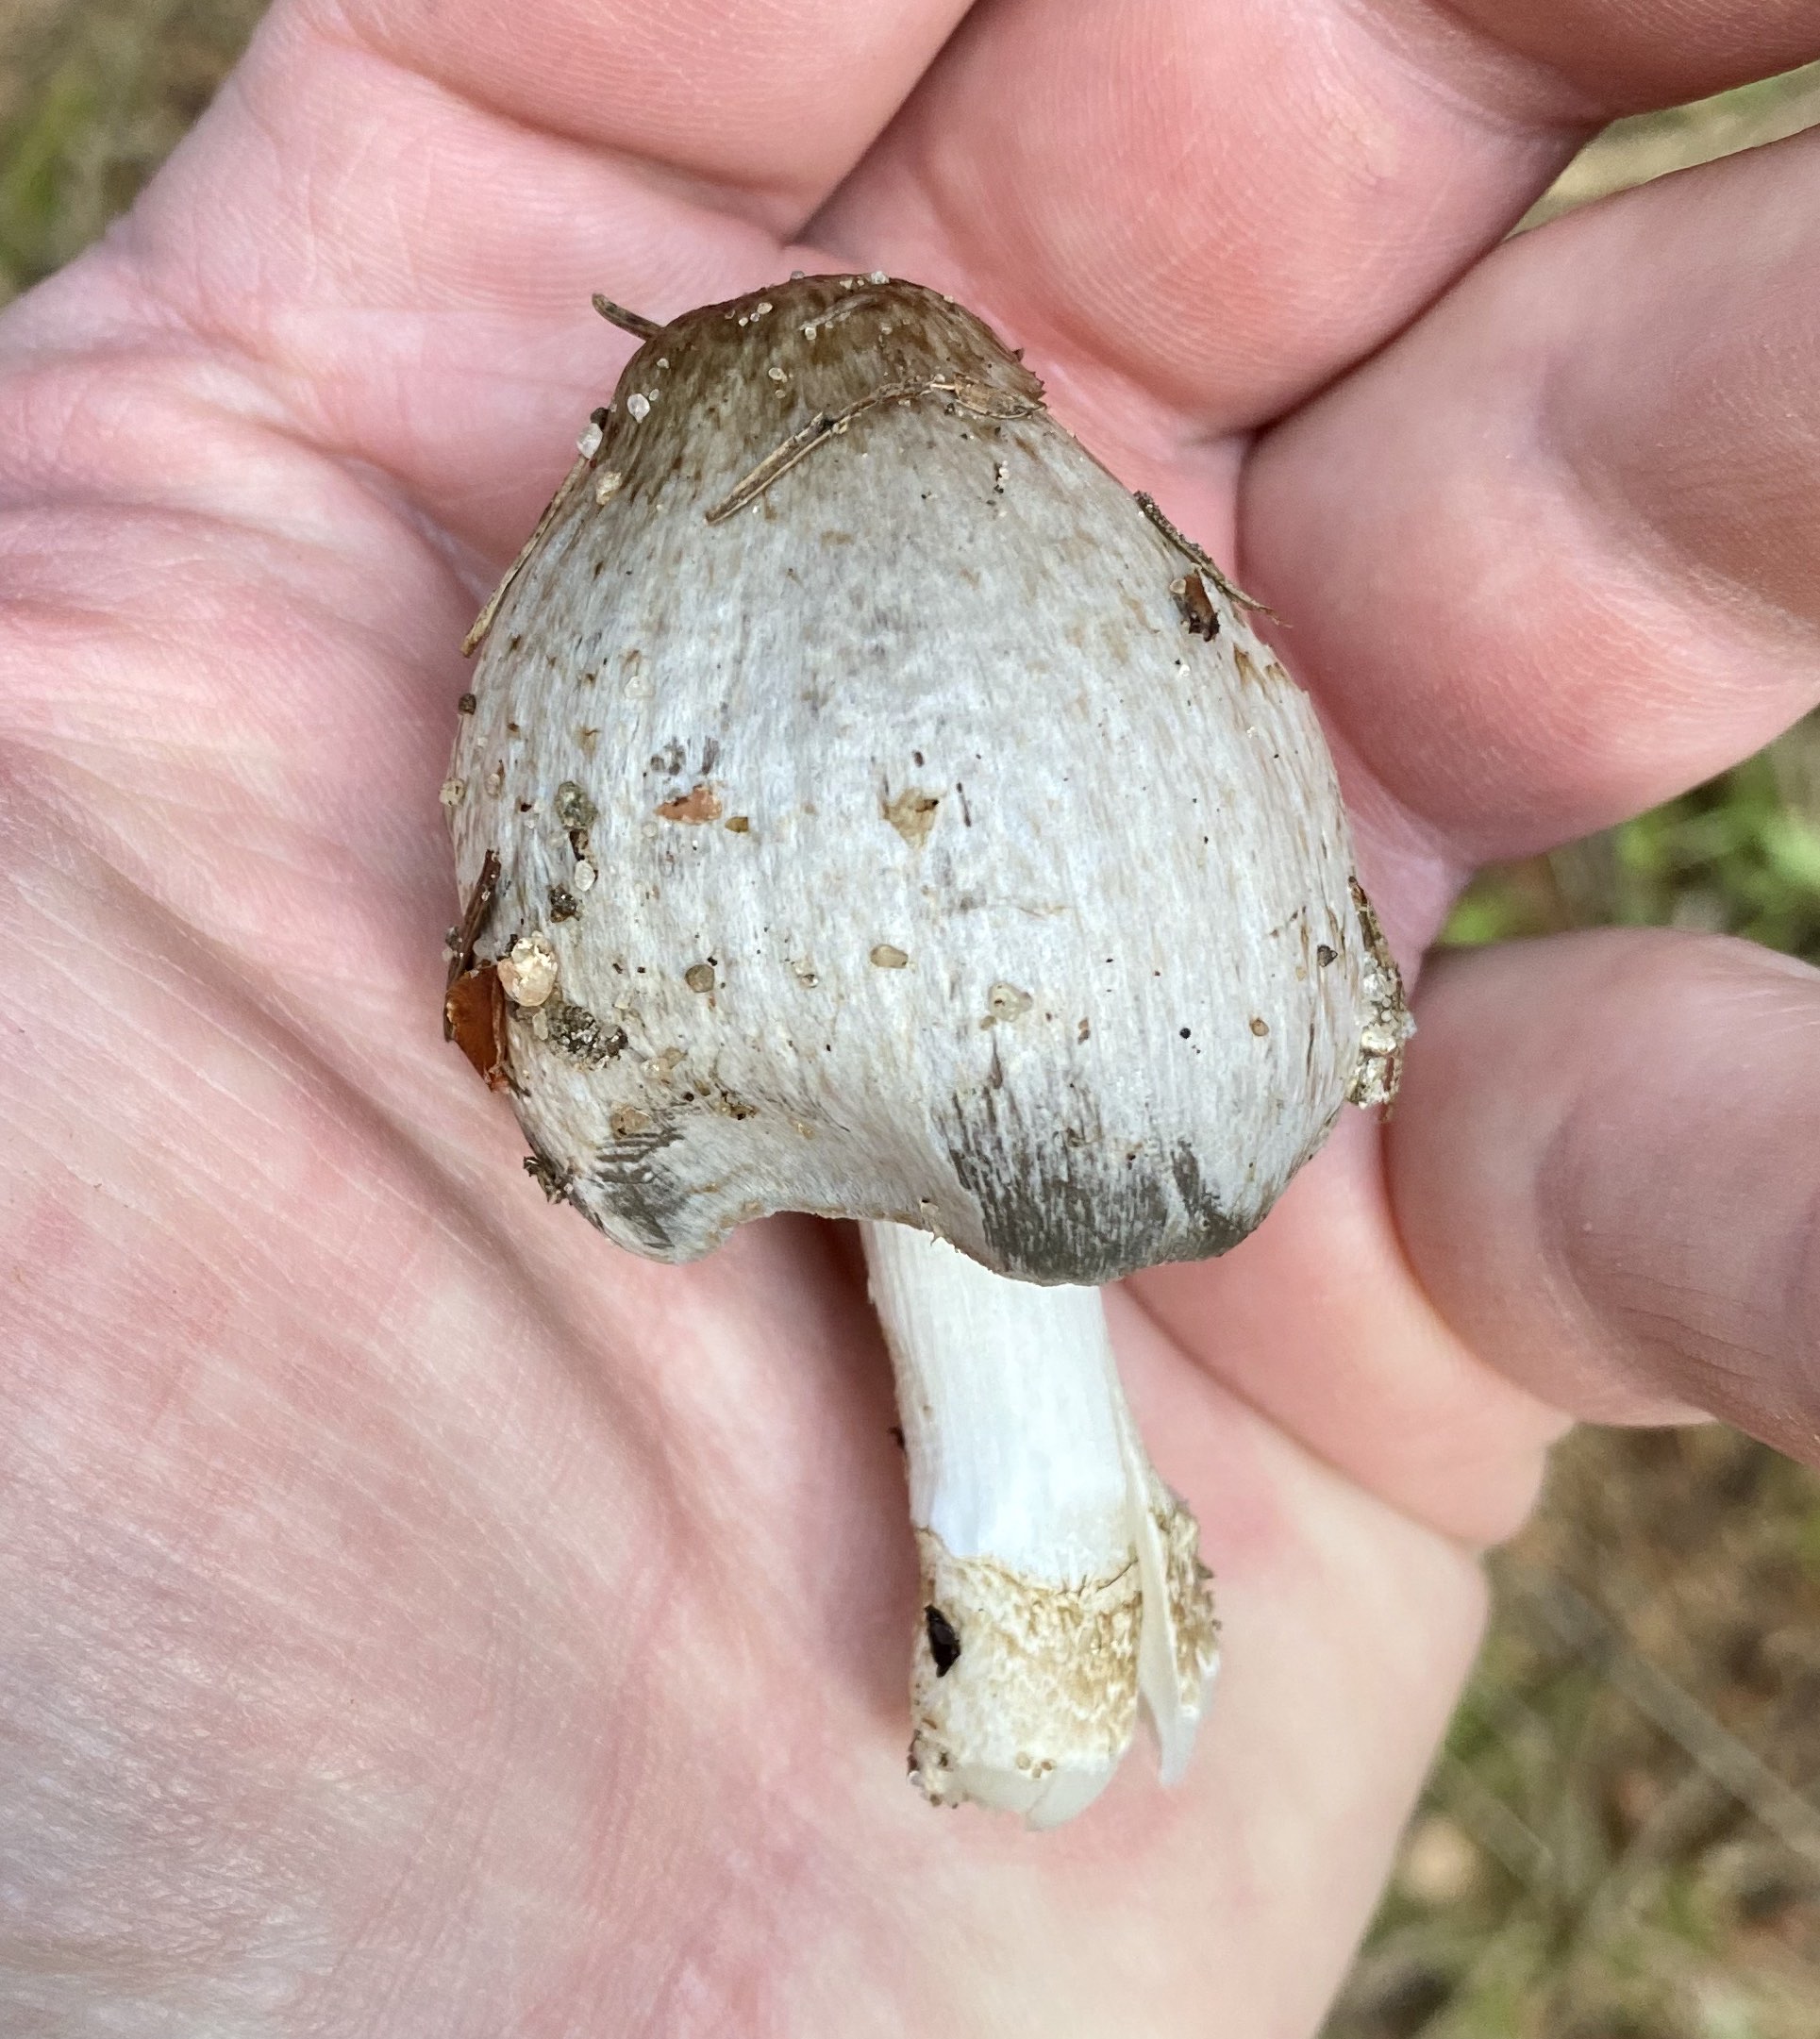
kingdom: Fungi
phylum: Basidiomycota
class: Agaricomycetes
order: Agaricales
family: Psathyrellaceae
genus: Coprinopsis
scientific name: Coprinopsis
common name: blækhat
